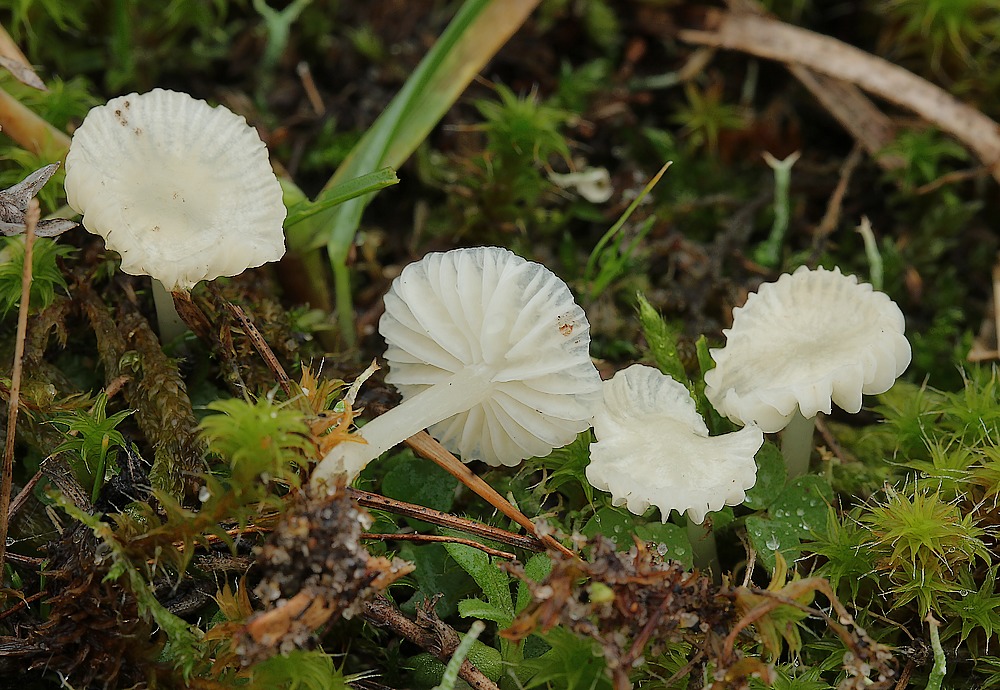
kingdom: Fungi
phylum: Basidiomycota
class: Agaricomycetes
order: Agaricales
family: Mycenaceae
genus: Atheniella
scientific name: Atheniella flavoalba
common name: gulhvid huesvamp
